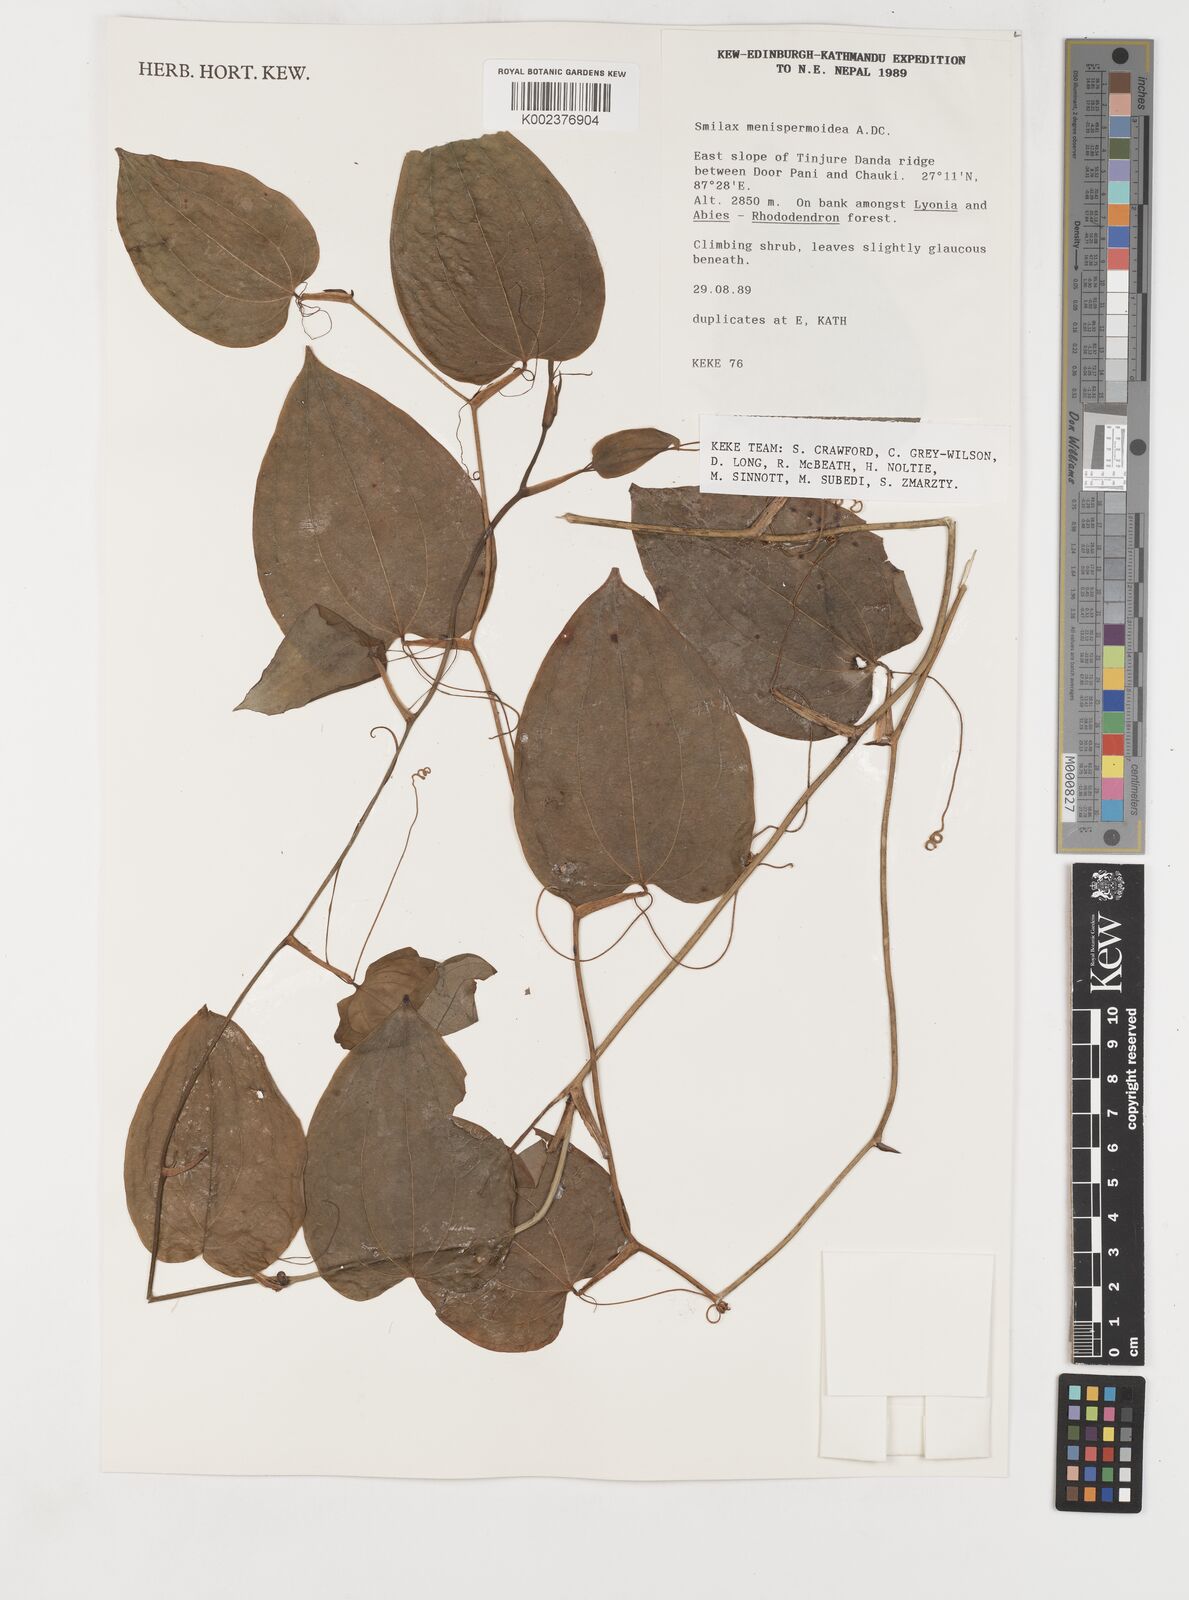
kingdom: Plantae
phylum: Tracheophyta
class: Liliopsida
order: Liliales
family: Smilacaceae
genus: Smilax
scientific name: Smilax menispermoidea
